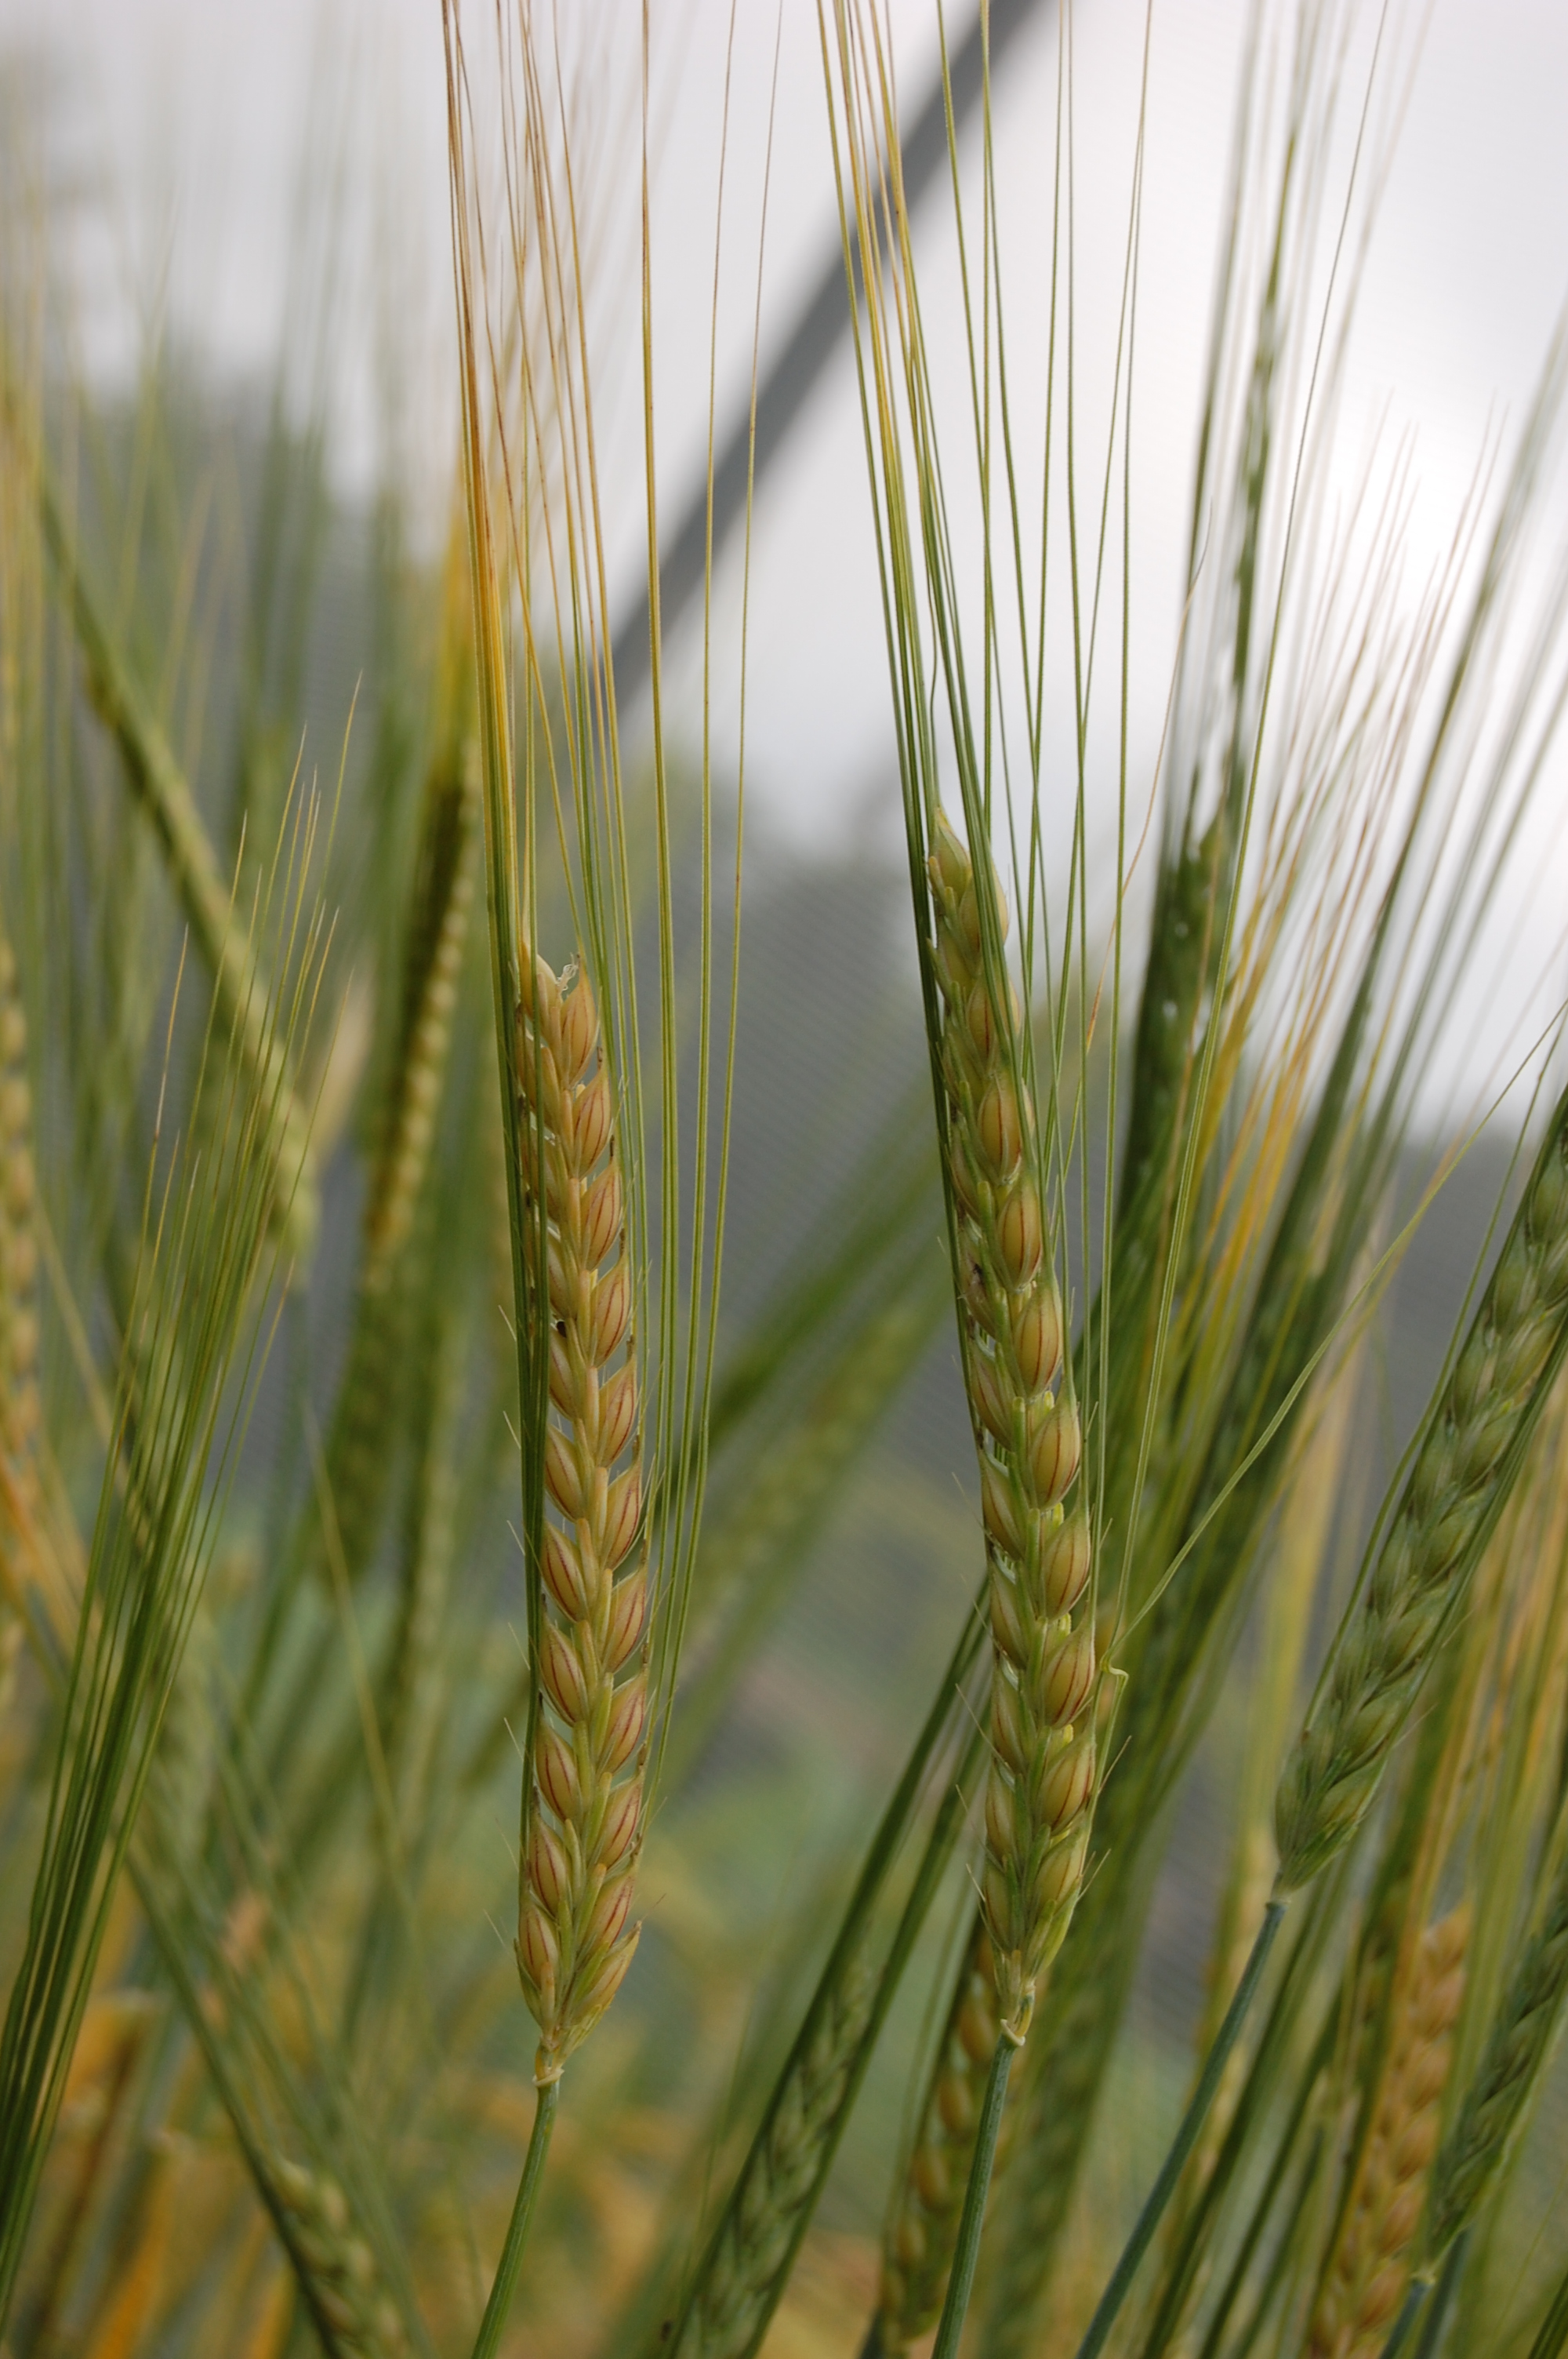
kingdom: Plantae
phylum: Tracheophyta
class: Liliopsida
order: Poales
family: Poaceae
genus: Hordeum
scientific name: Hordeum vulgare
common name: Common barley
